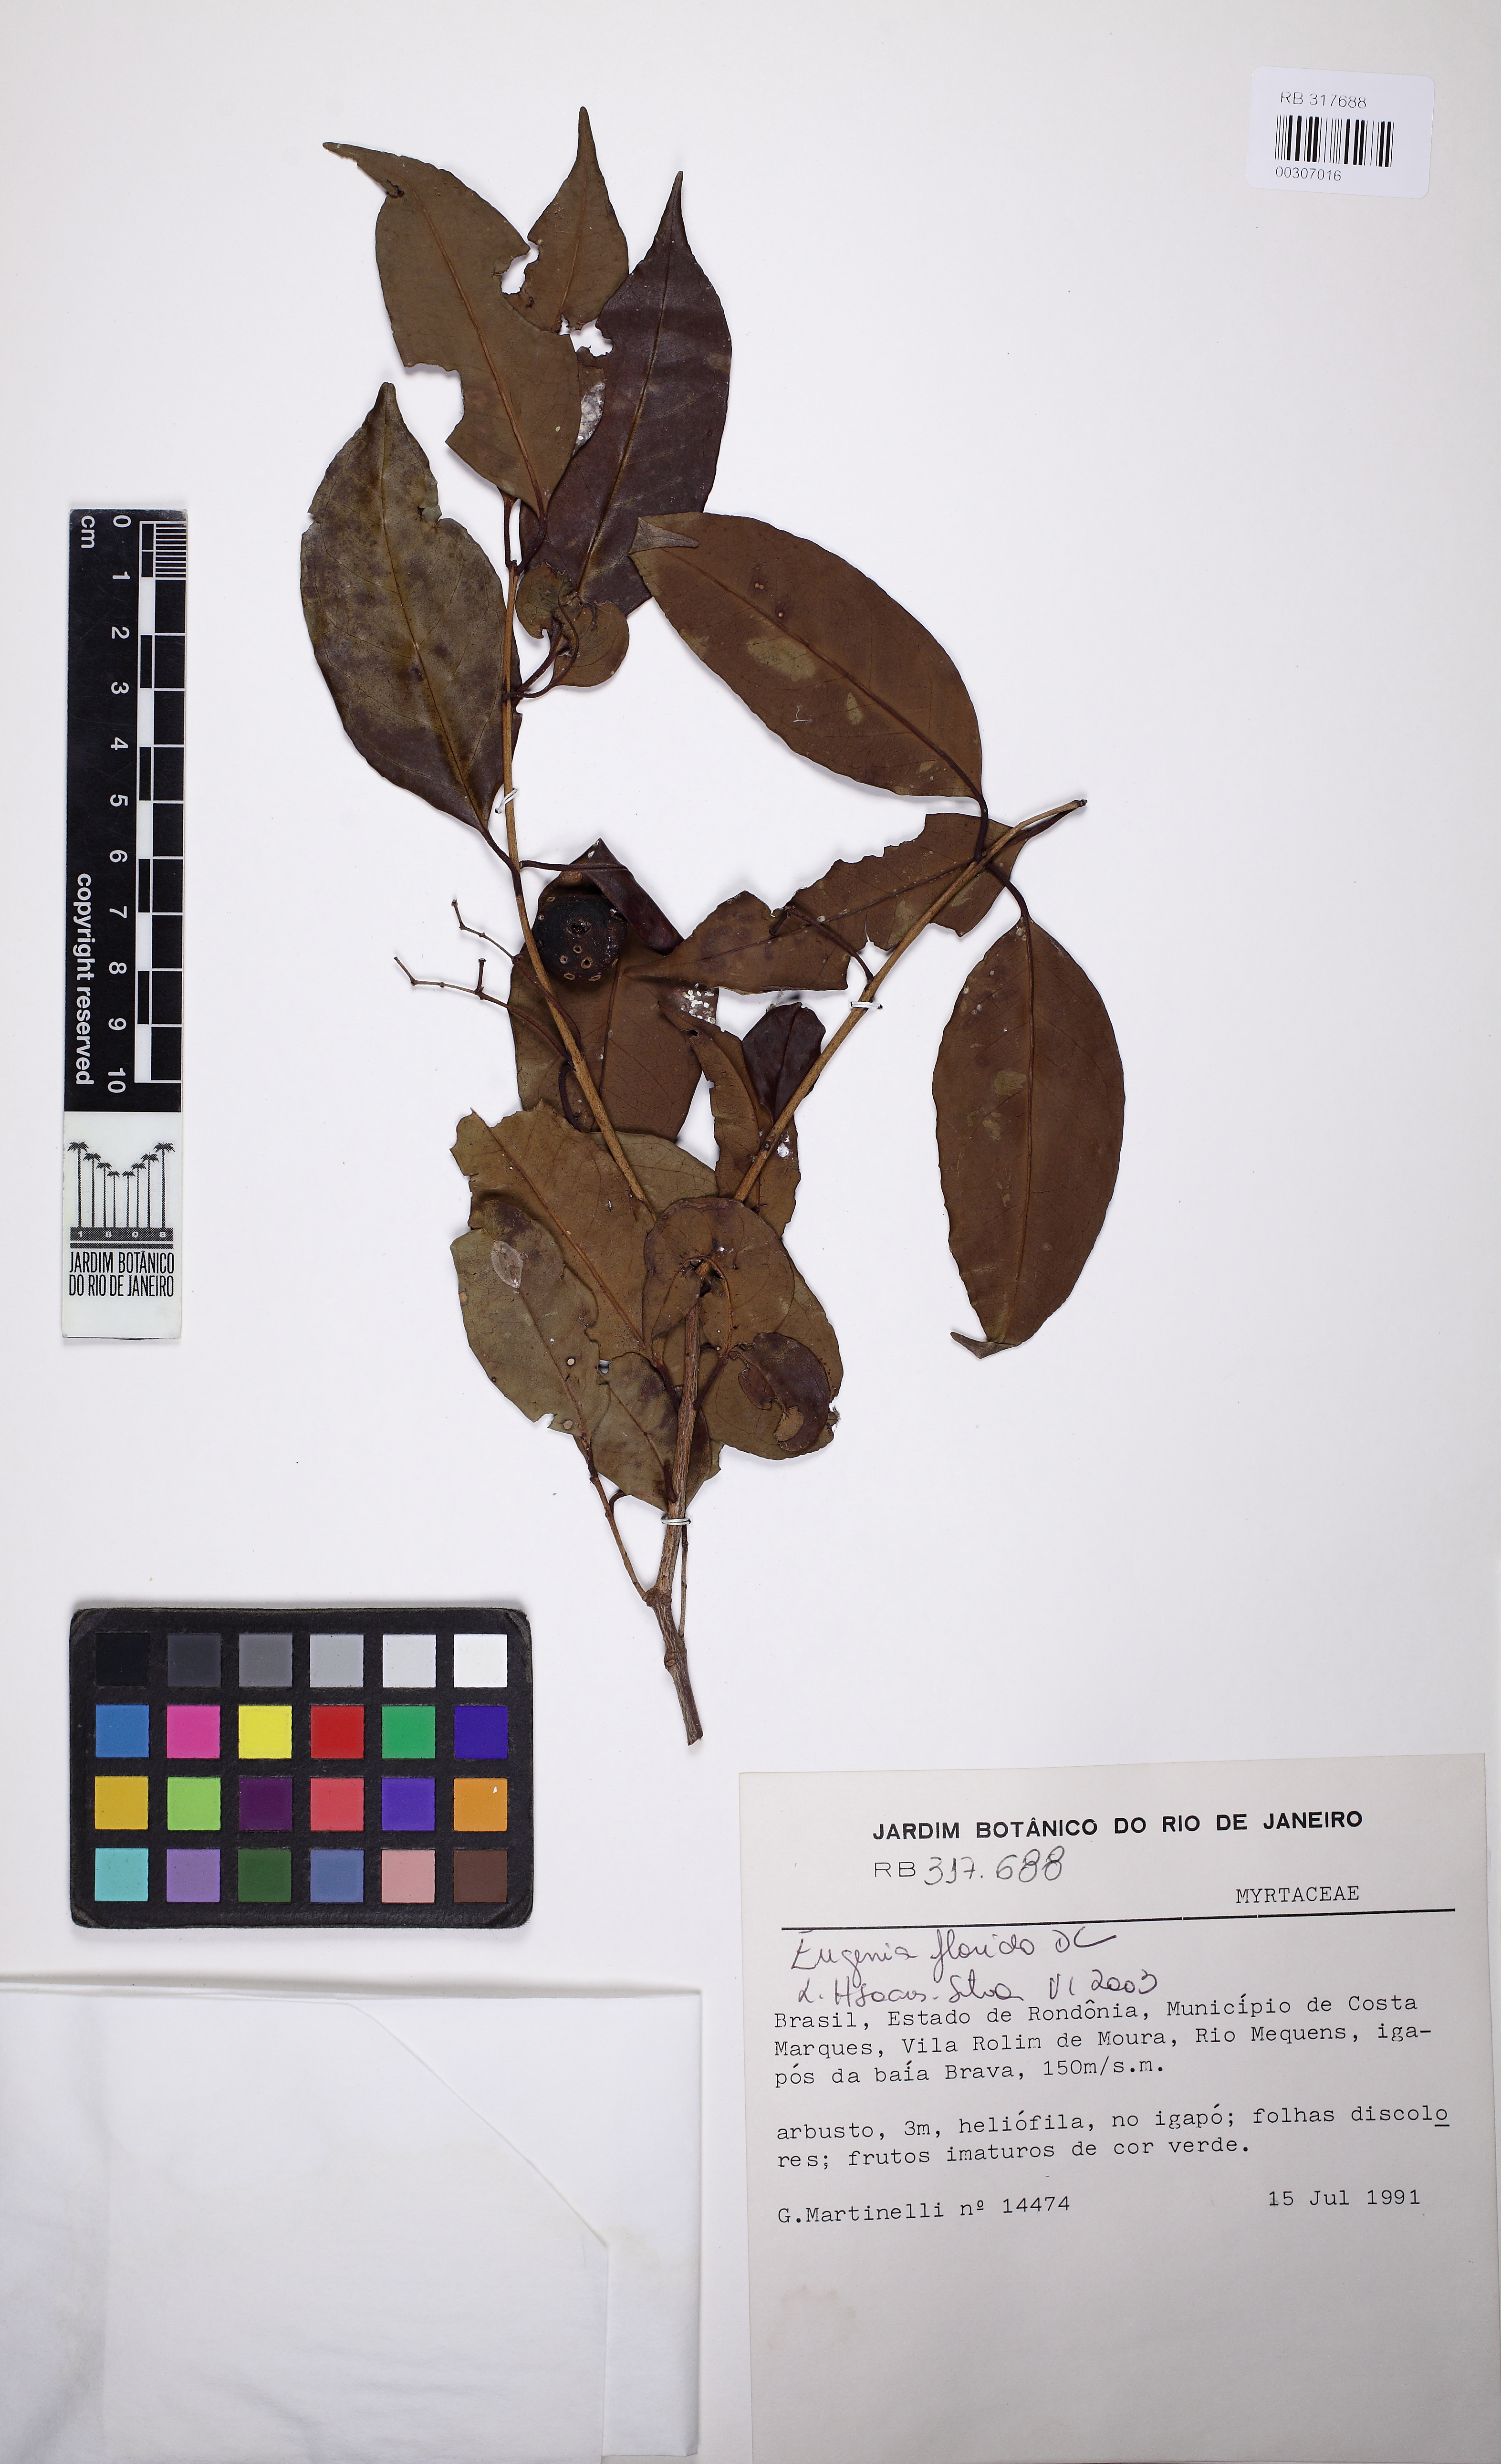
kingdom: Plantae
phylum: Tracheophyta
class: Magnoliopsida
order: Myrtales
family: Myrtaceae
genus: Eugenia
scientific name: Eugenia florida
